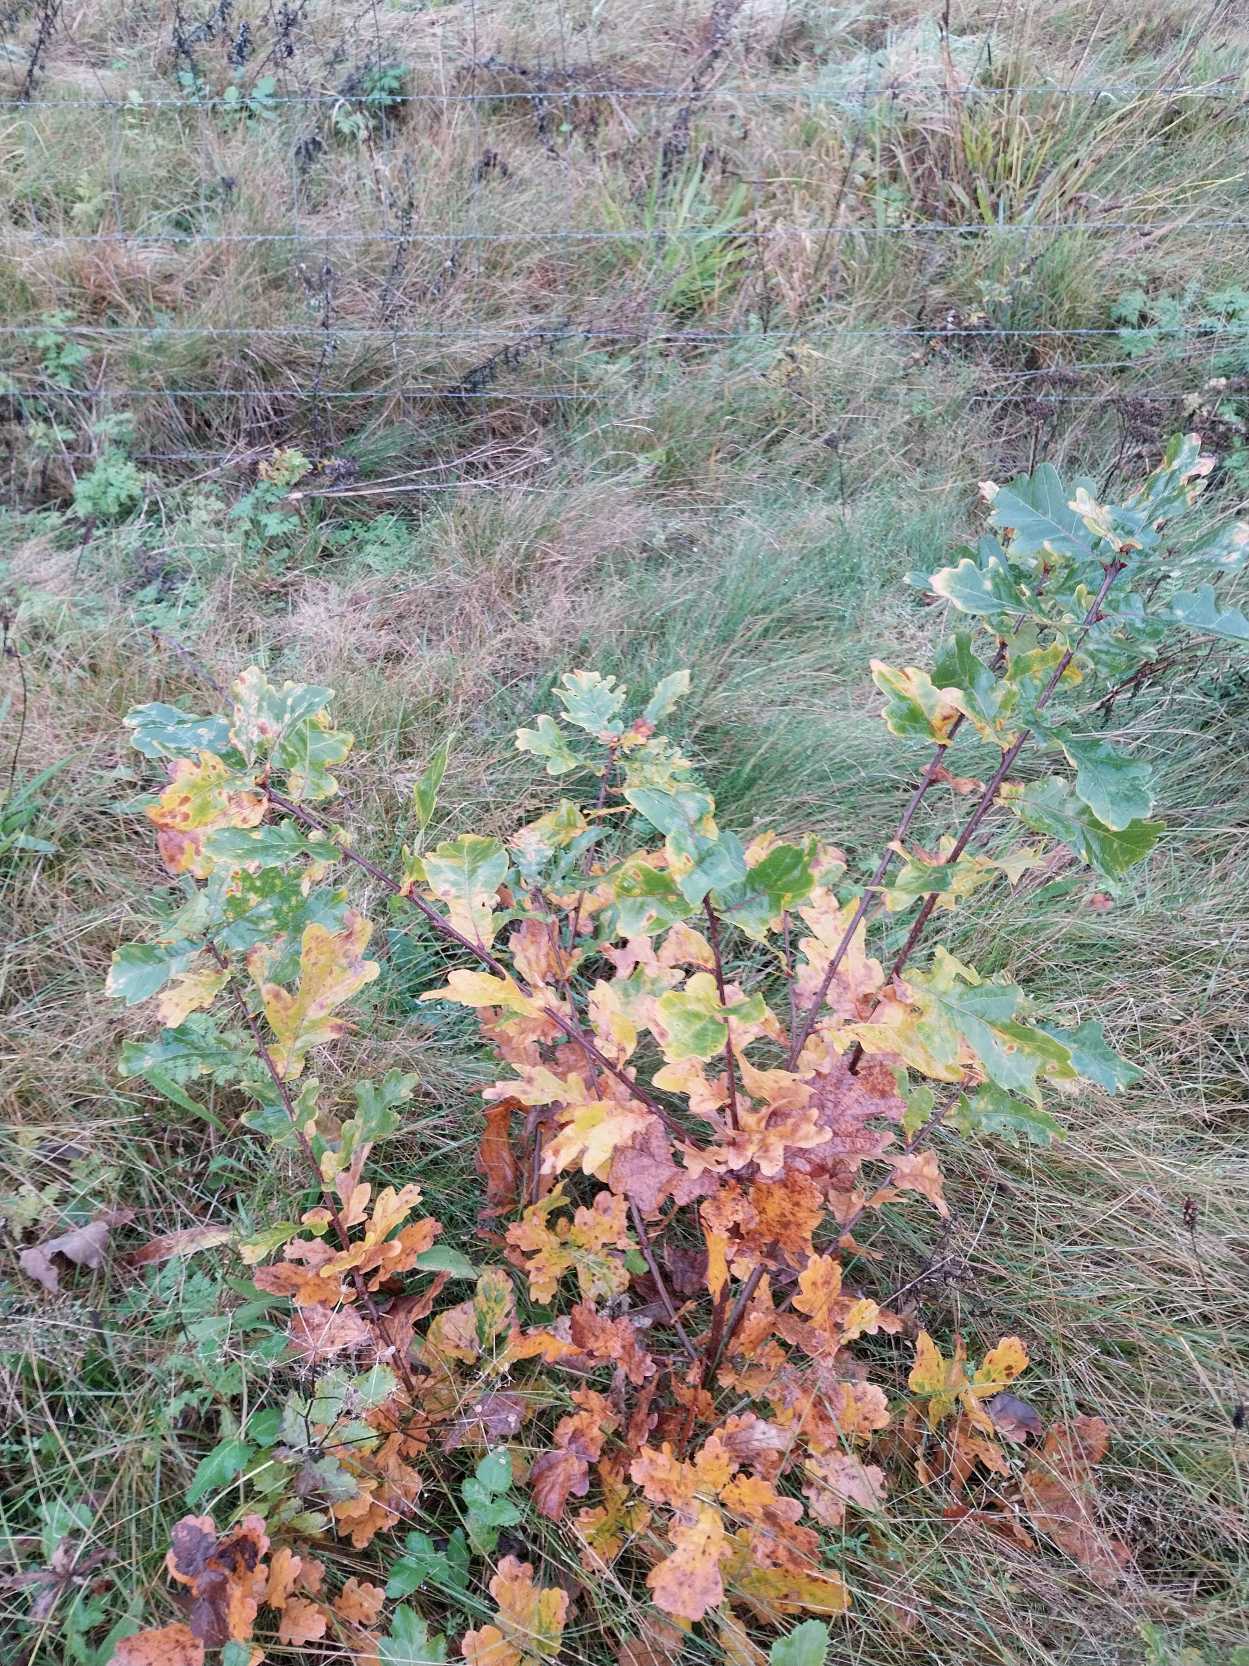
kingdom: Plantae
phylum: Tracheophyta
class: Magnoliopsida
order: Fagales
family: Fagaceae
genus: Quercus
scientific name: Quercus robur
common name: Stilk-eg/almindelig eg
